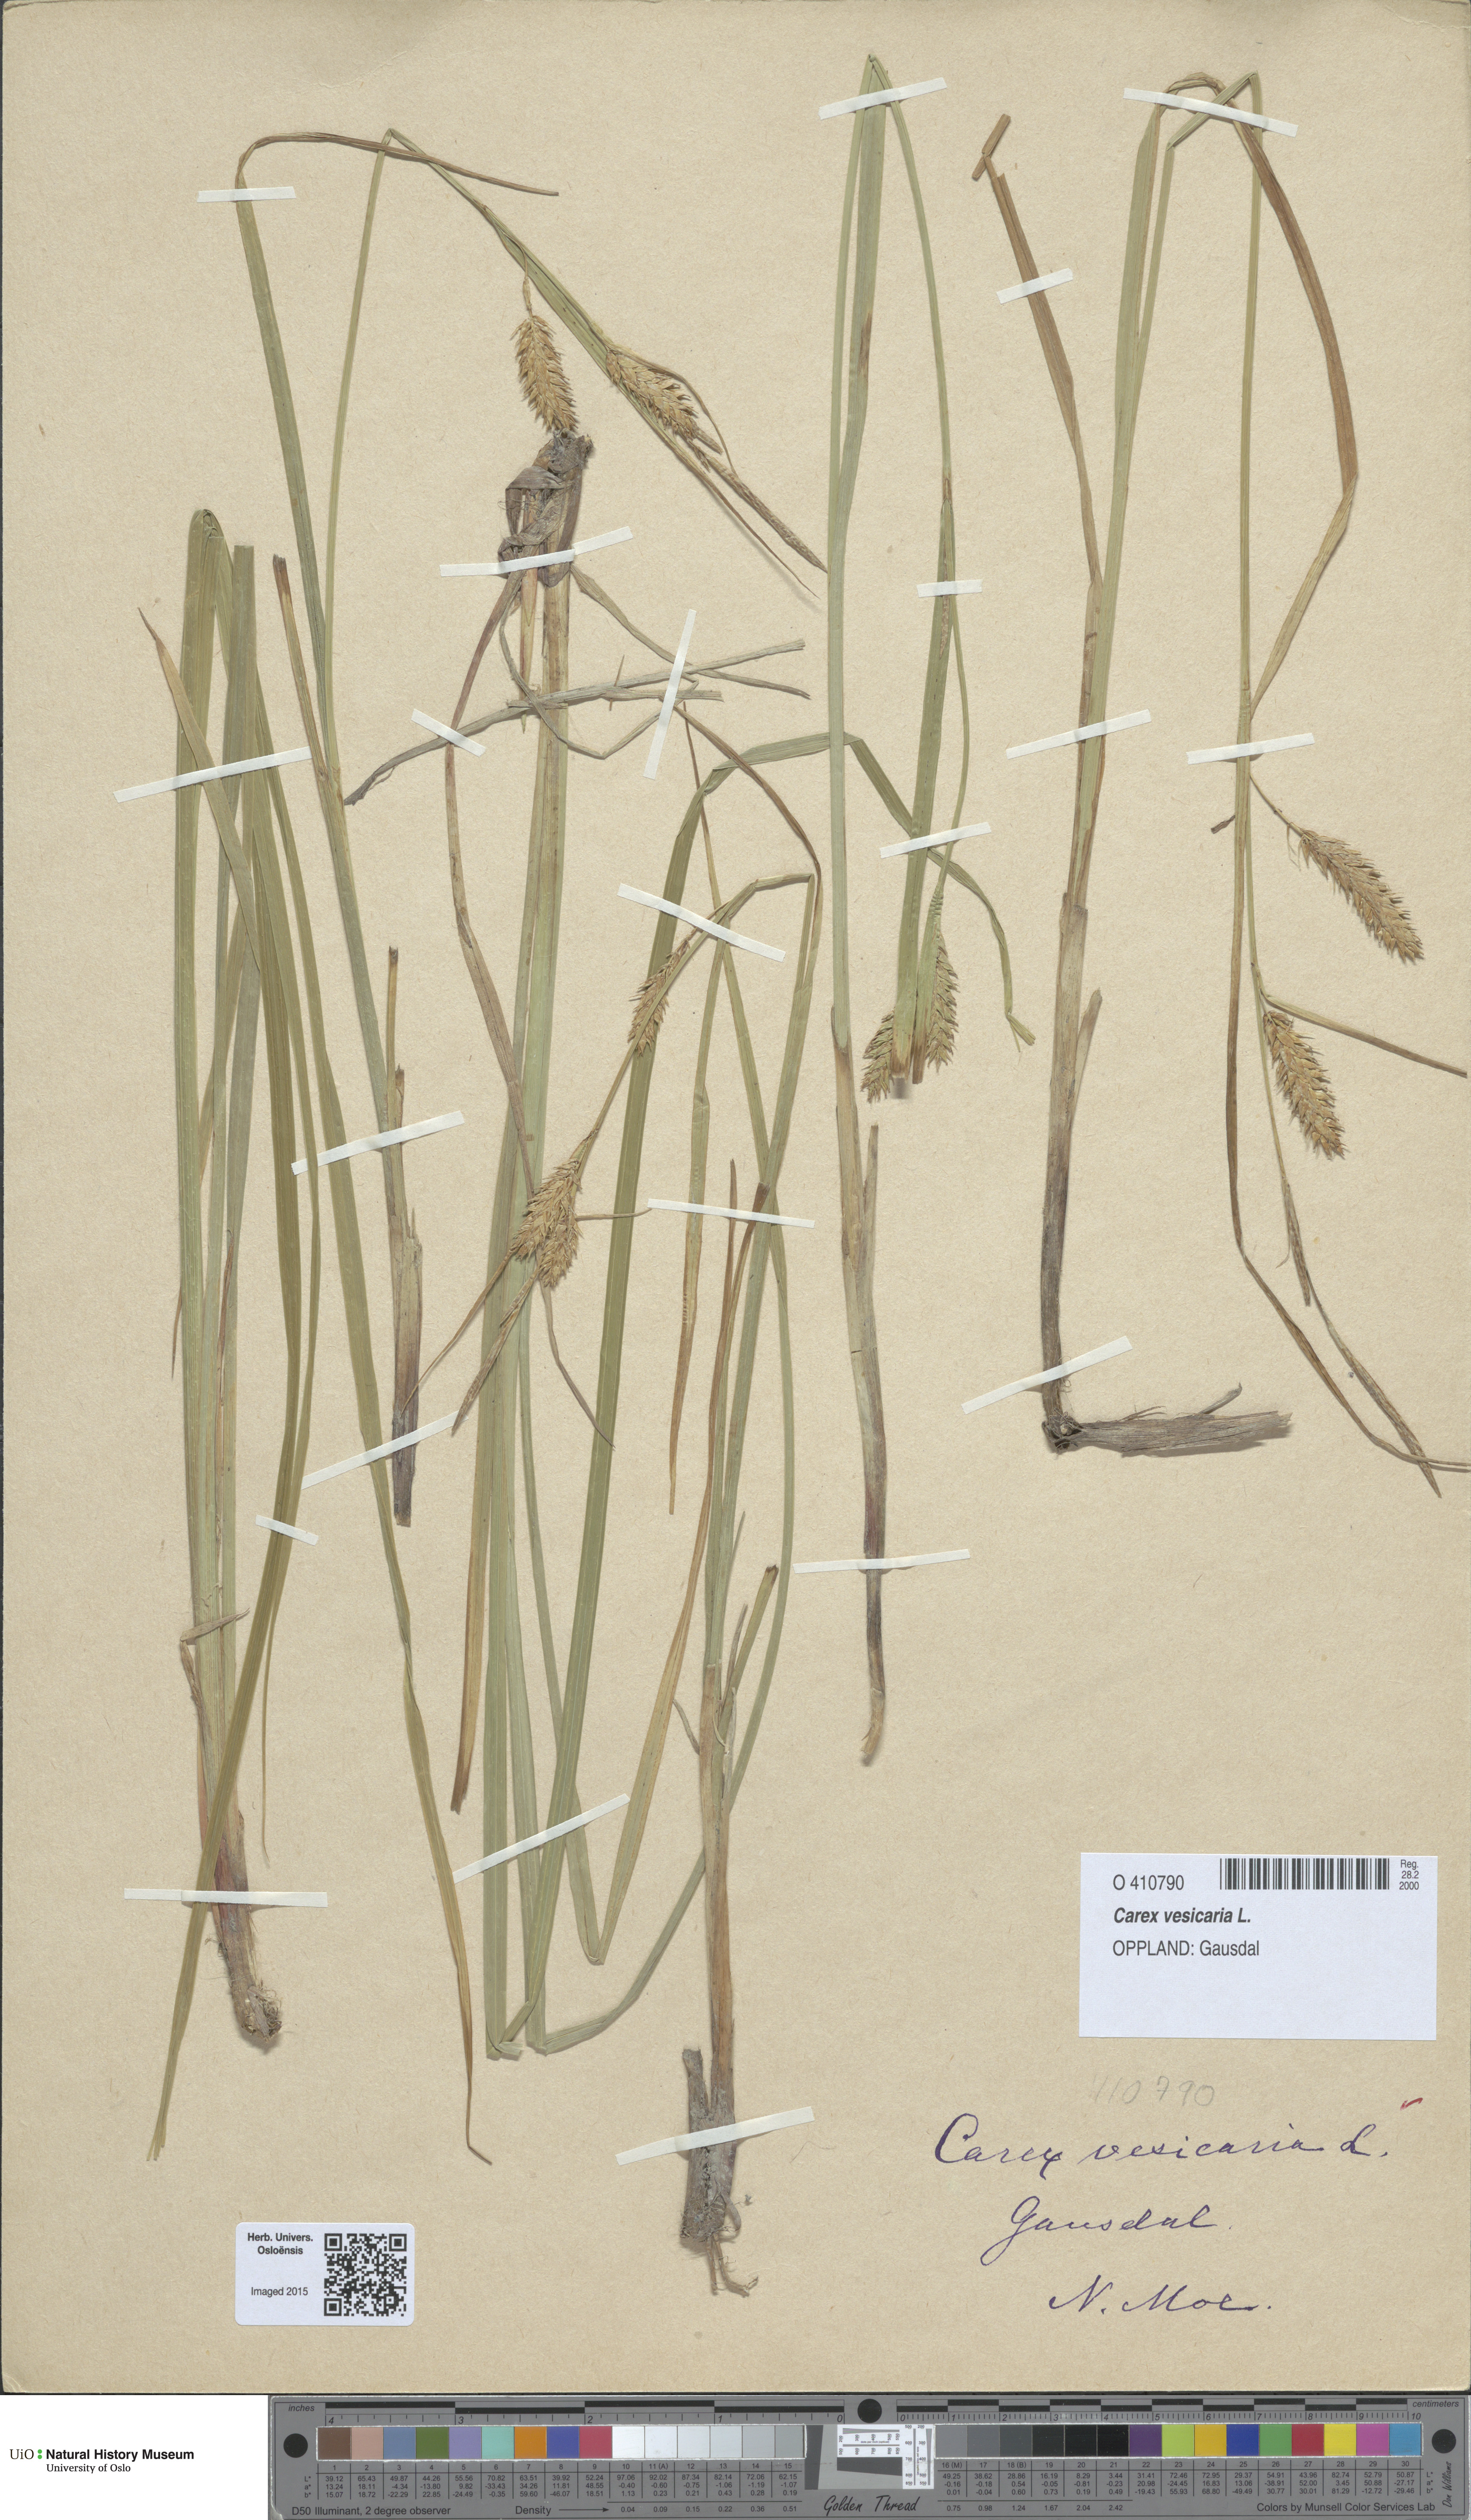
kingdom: Plantae
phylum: Tracheophyta
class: Liliopsida
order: Poales
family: Cyperaceae
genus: Carex
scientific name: Carex vesicaria
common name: Bladder-sedge
